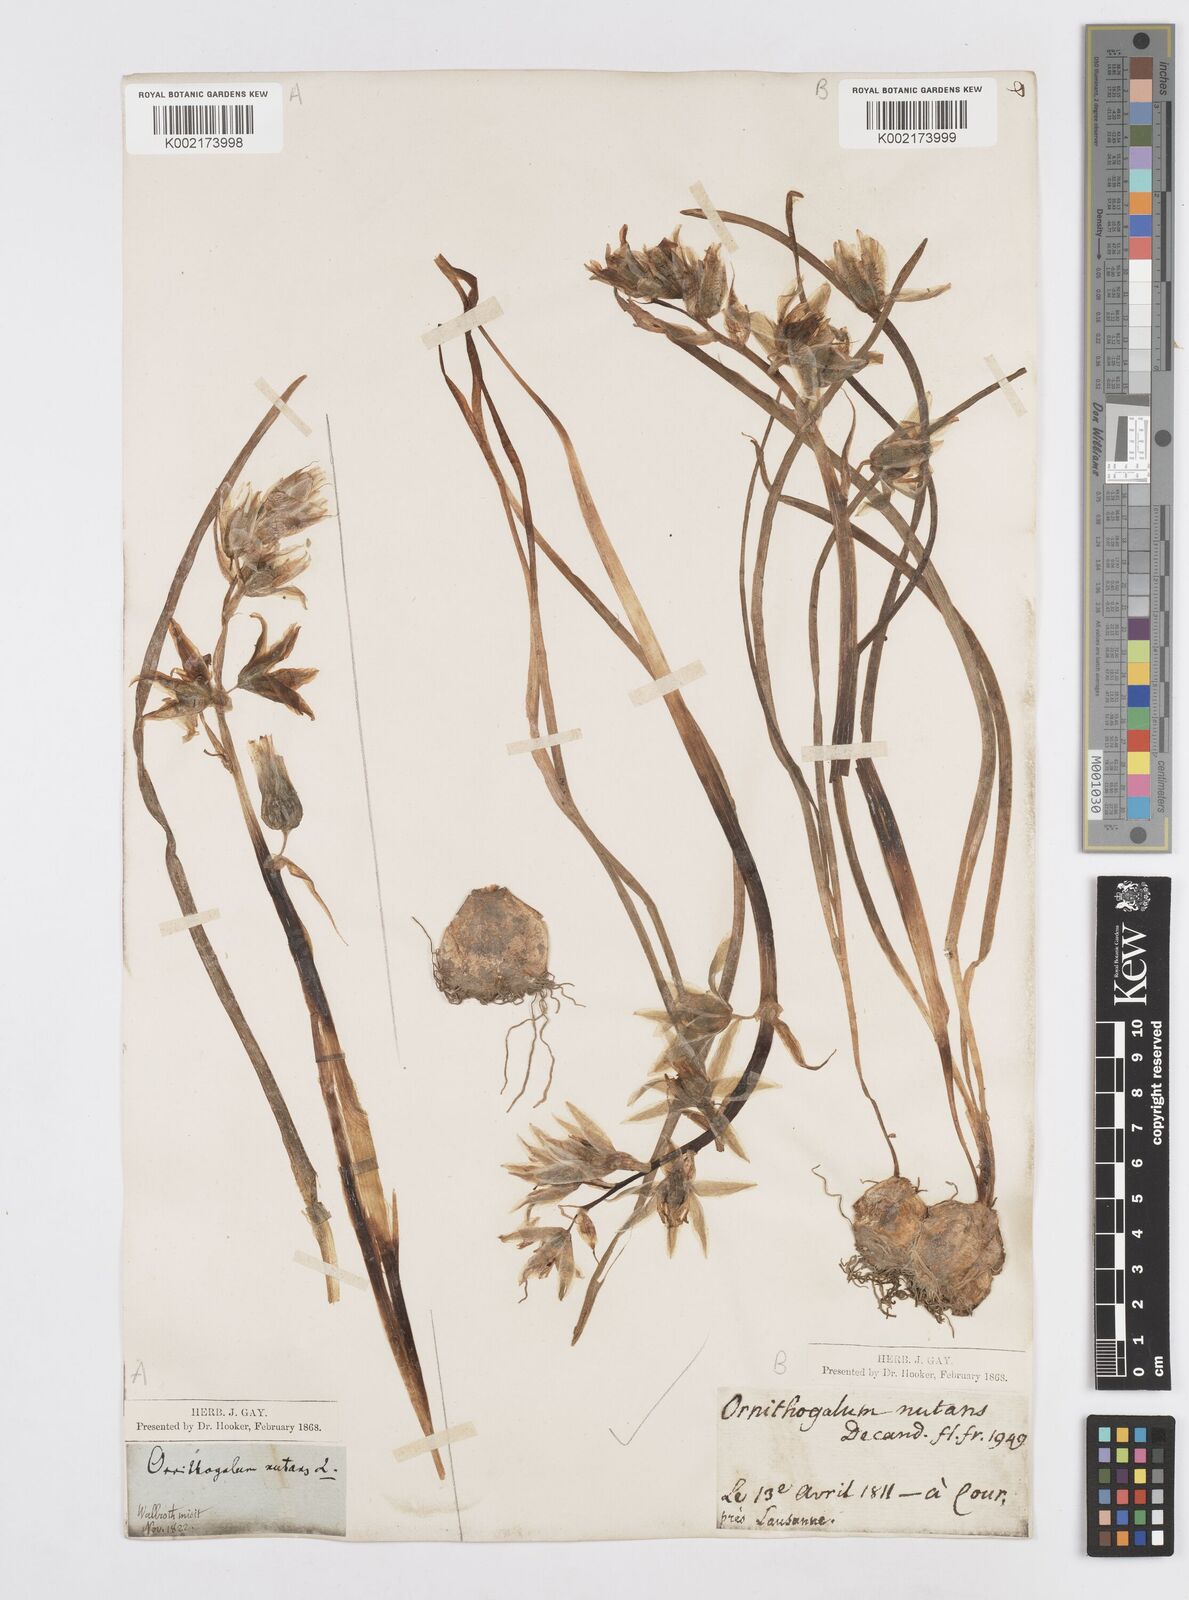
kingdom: Plantae
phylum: Tracheophyta
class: Liliopsida
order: Asparagales
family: Asparagaceae
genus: Ornithogalum
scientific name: Ornithogalum nutans
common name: Drooping star-of-bethlehem
